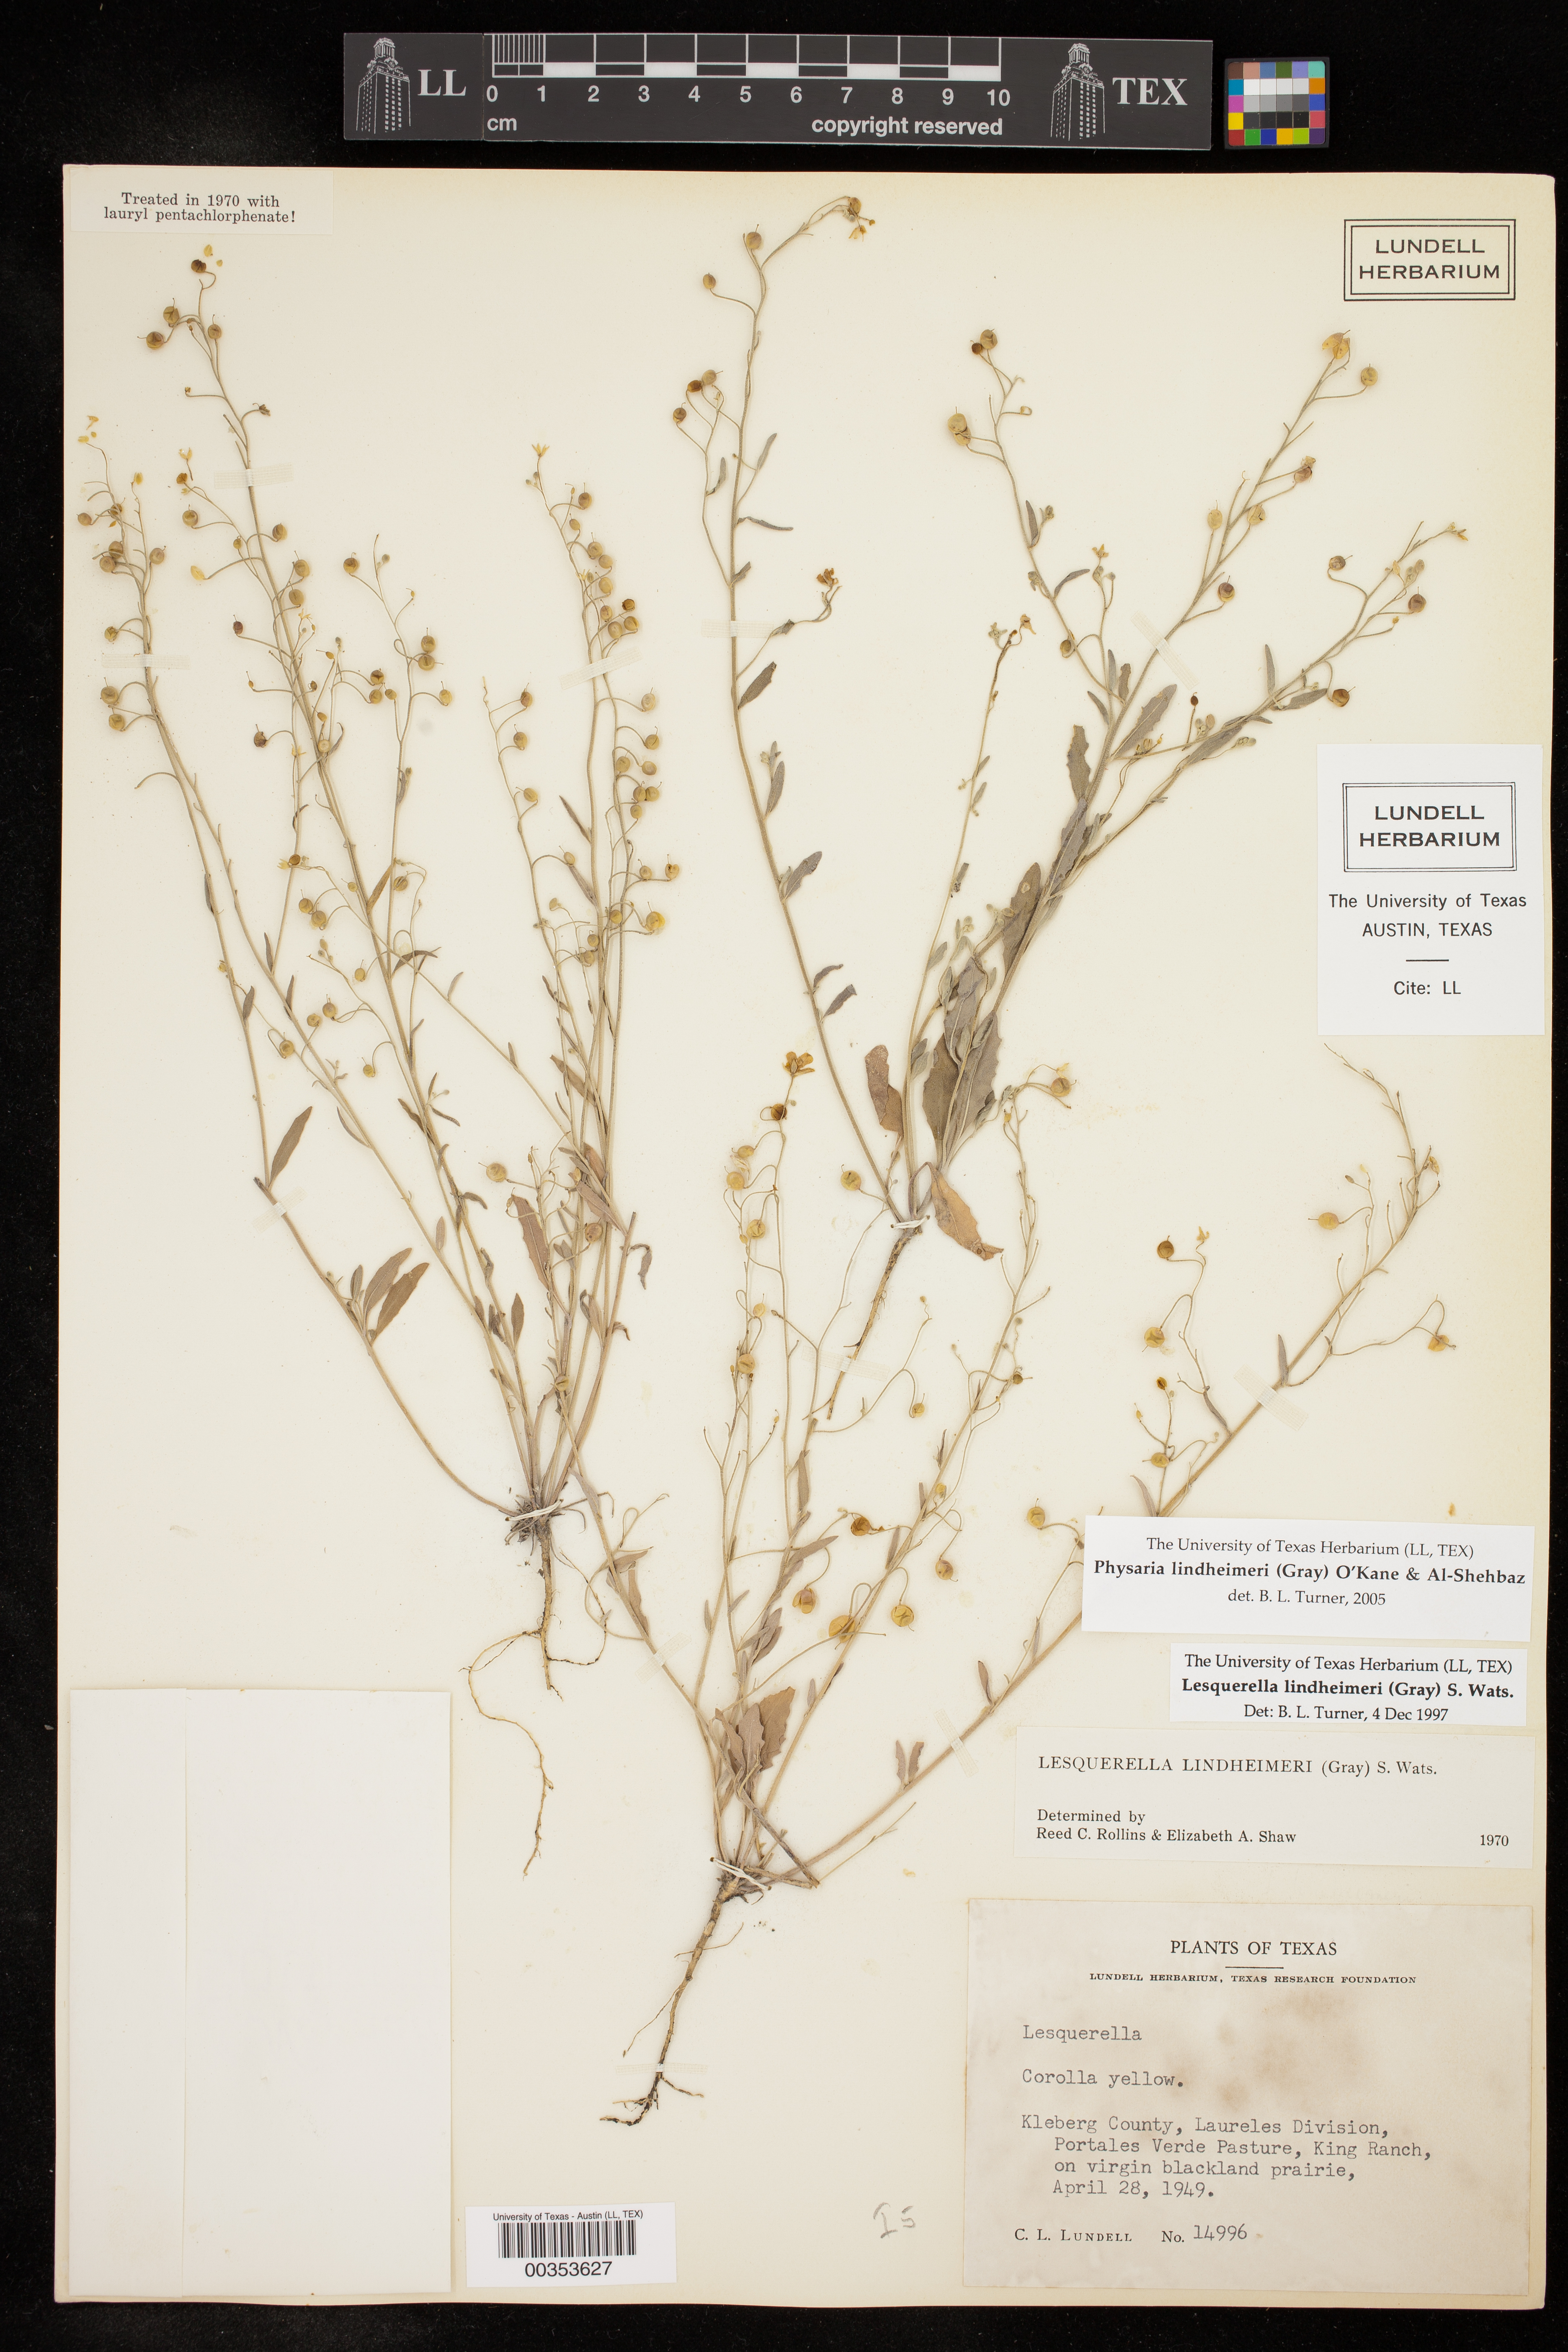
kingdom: Plantae
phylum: Tracheophyta
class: Magnoliopsida
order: Brassicales
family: Brassicaceae
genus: Physaria
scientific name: Physaria lindheimeri
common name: Lindheimer's bladderpod
